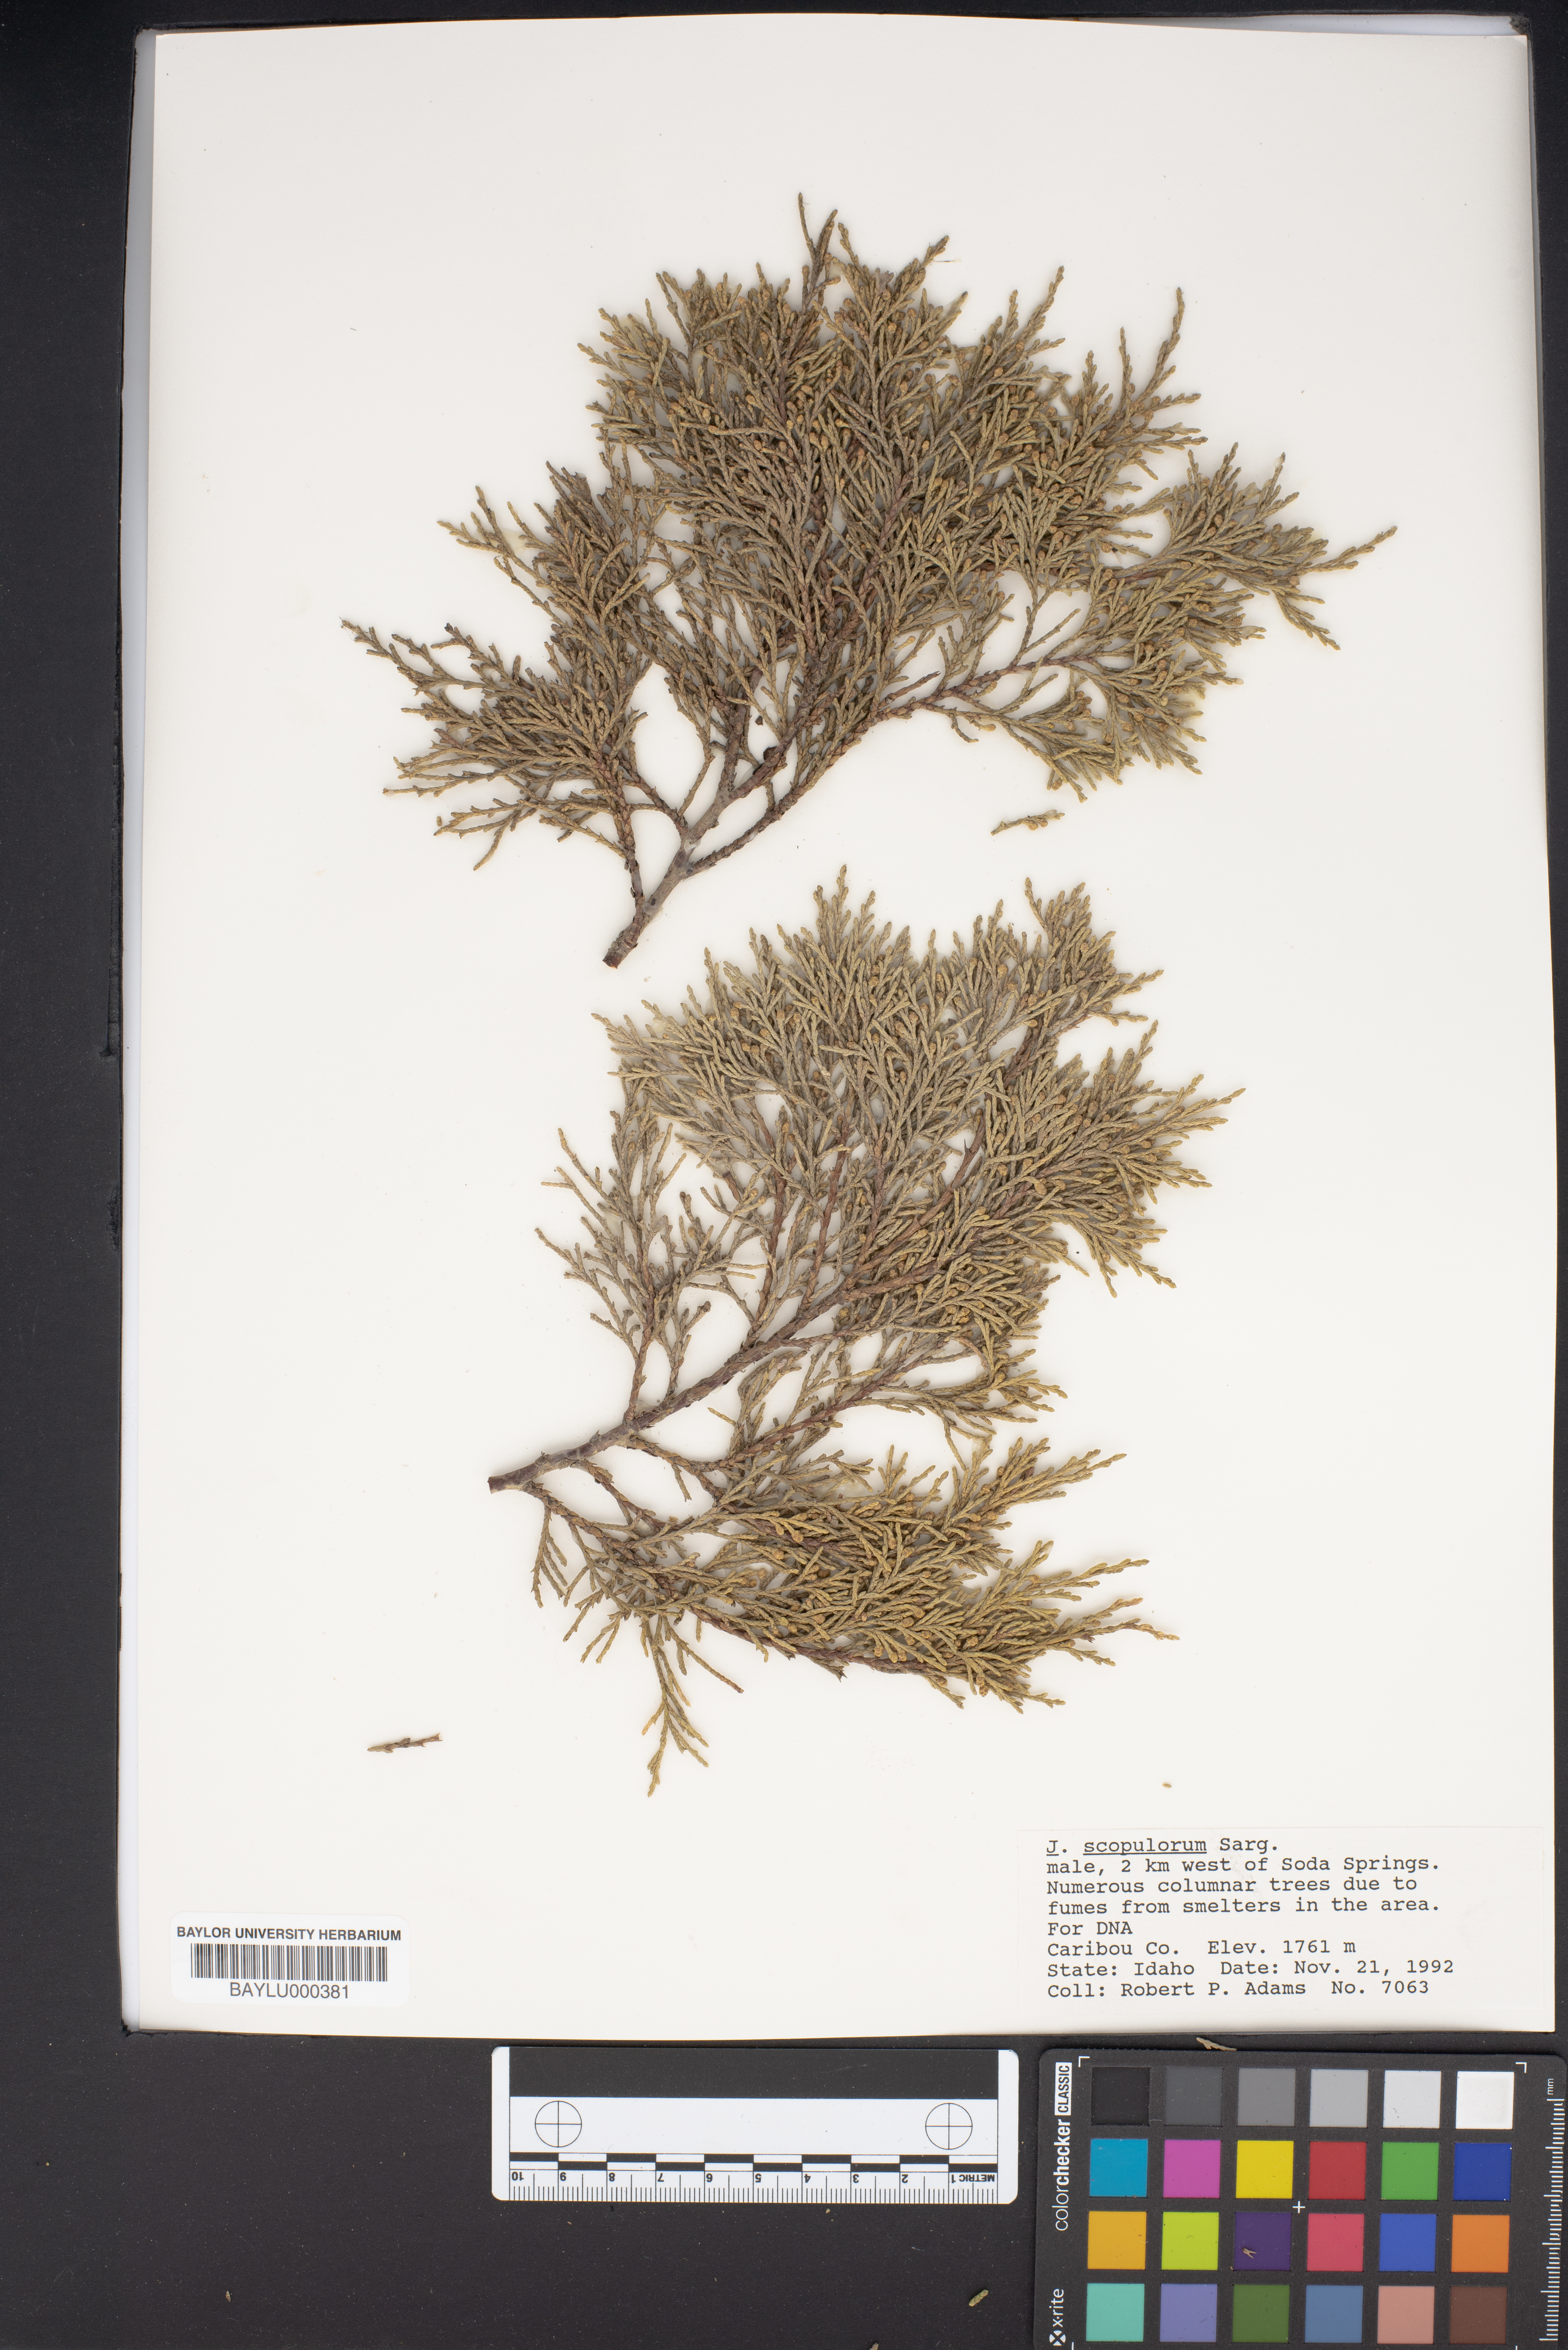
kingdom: Plantae
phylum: Tracheophyta
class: Pinopsida
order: Pinales
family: Cupressaceae
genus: Juniperus
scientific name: Juniperus scopulorum
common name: Rocky mountain juniper
